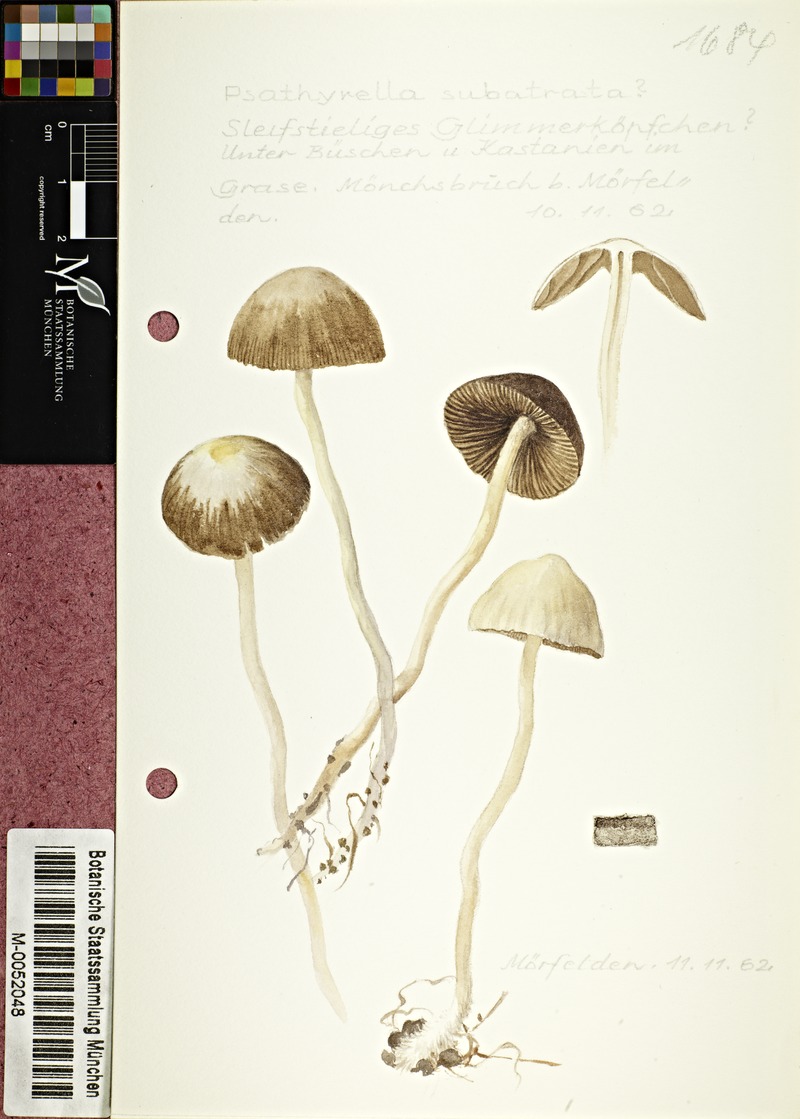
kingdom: Fungi
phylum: Basidiomycota
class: Agaricomycetes
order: Agaricales
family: Psathyrellaceae
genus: Parasola
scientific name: Parasola conopilea
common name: Conical brittlestem
